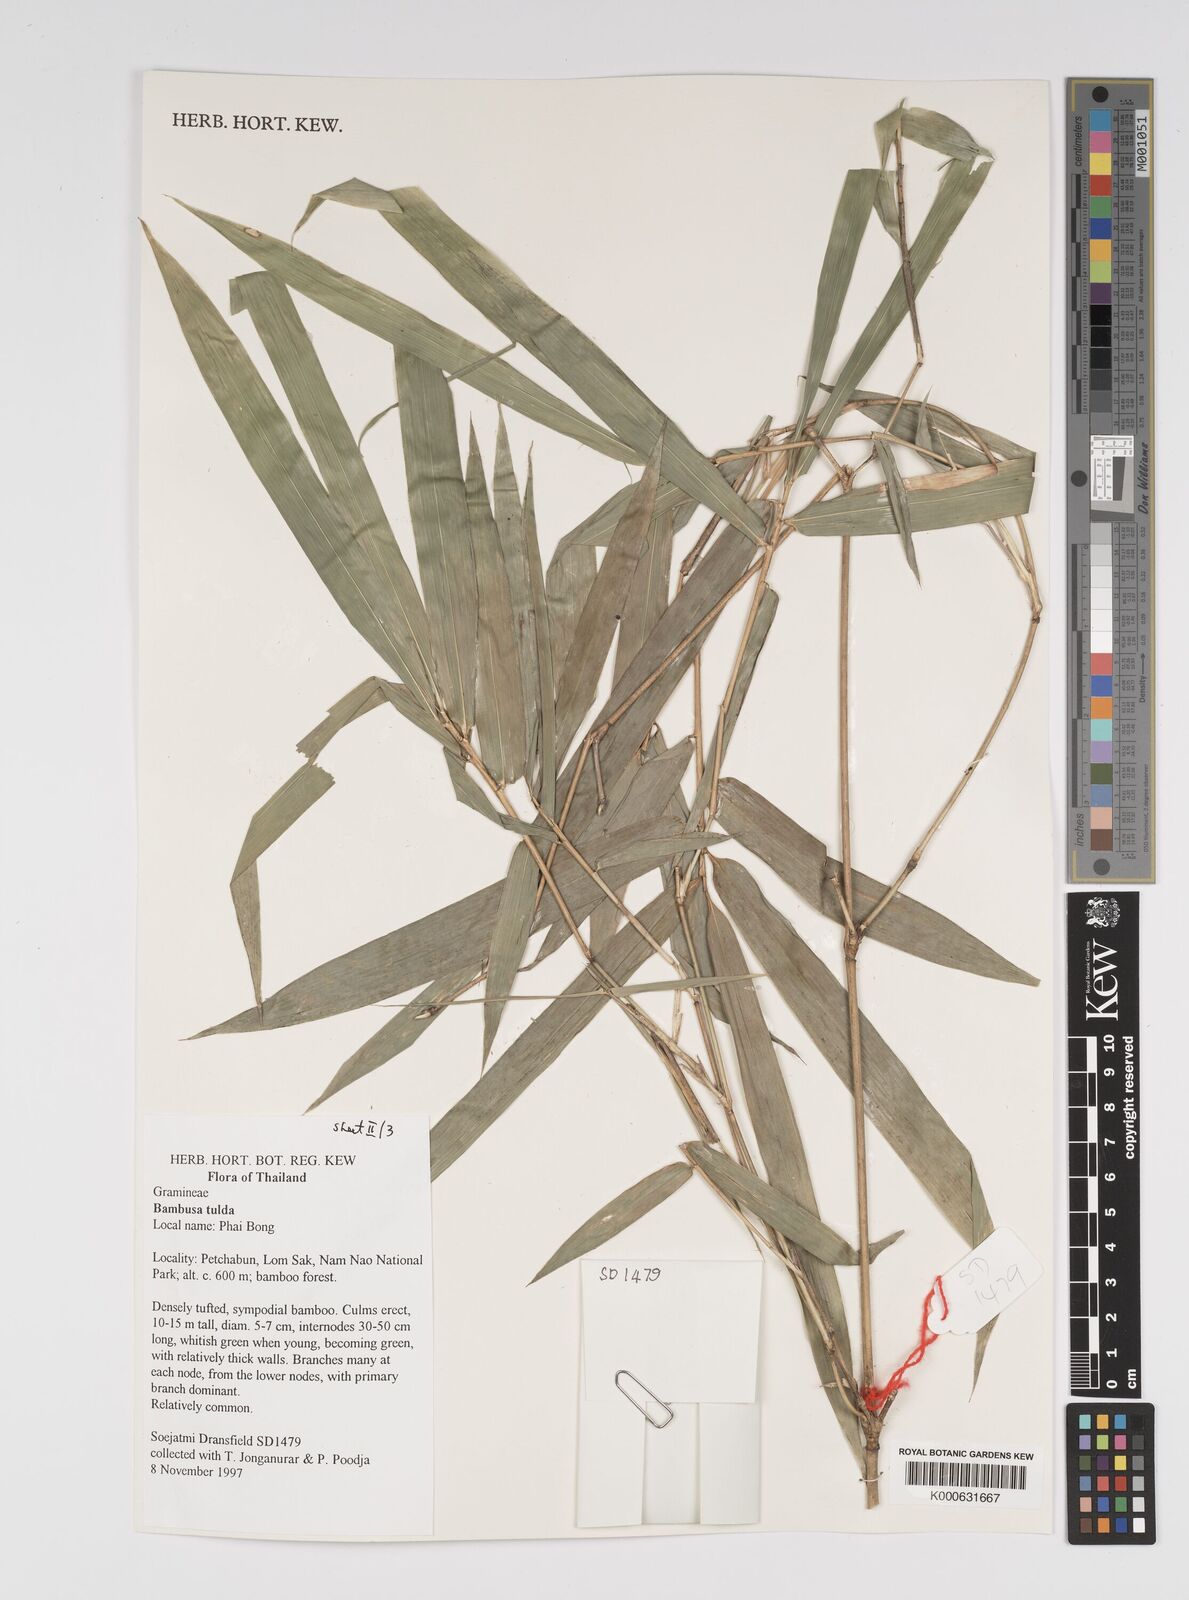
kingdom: Plantae
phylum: Tracheophyta
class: Liliopsida
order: Poales
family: Poaceae
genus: Bambusa
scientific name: Bambusa
